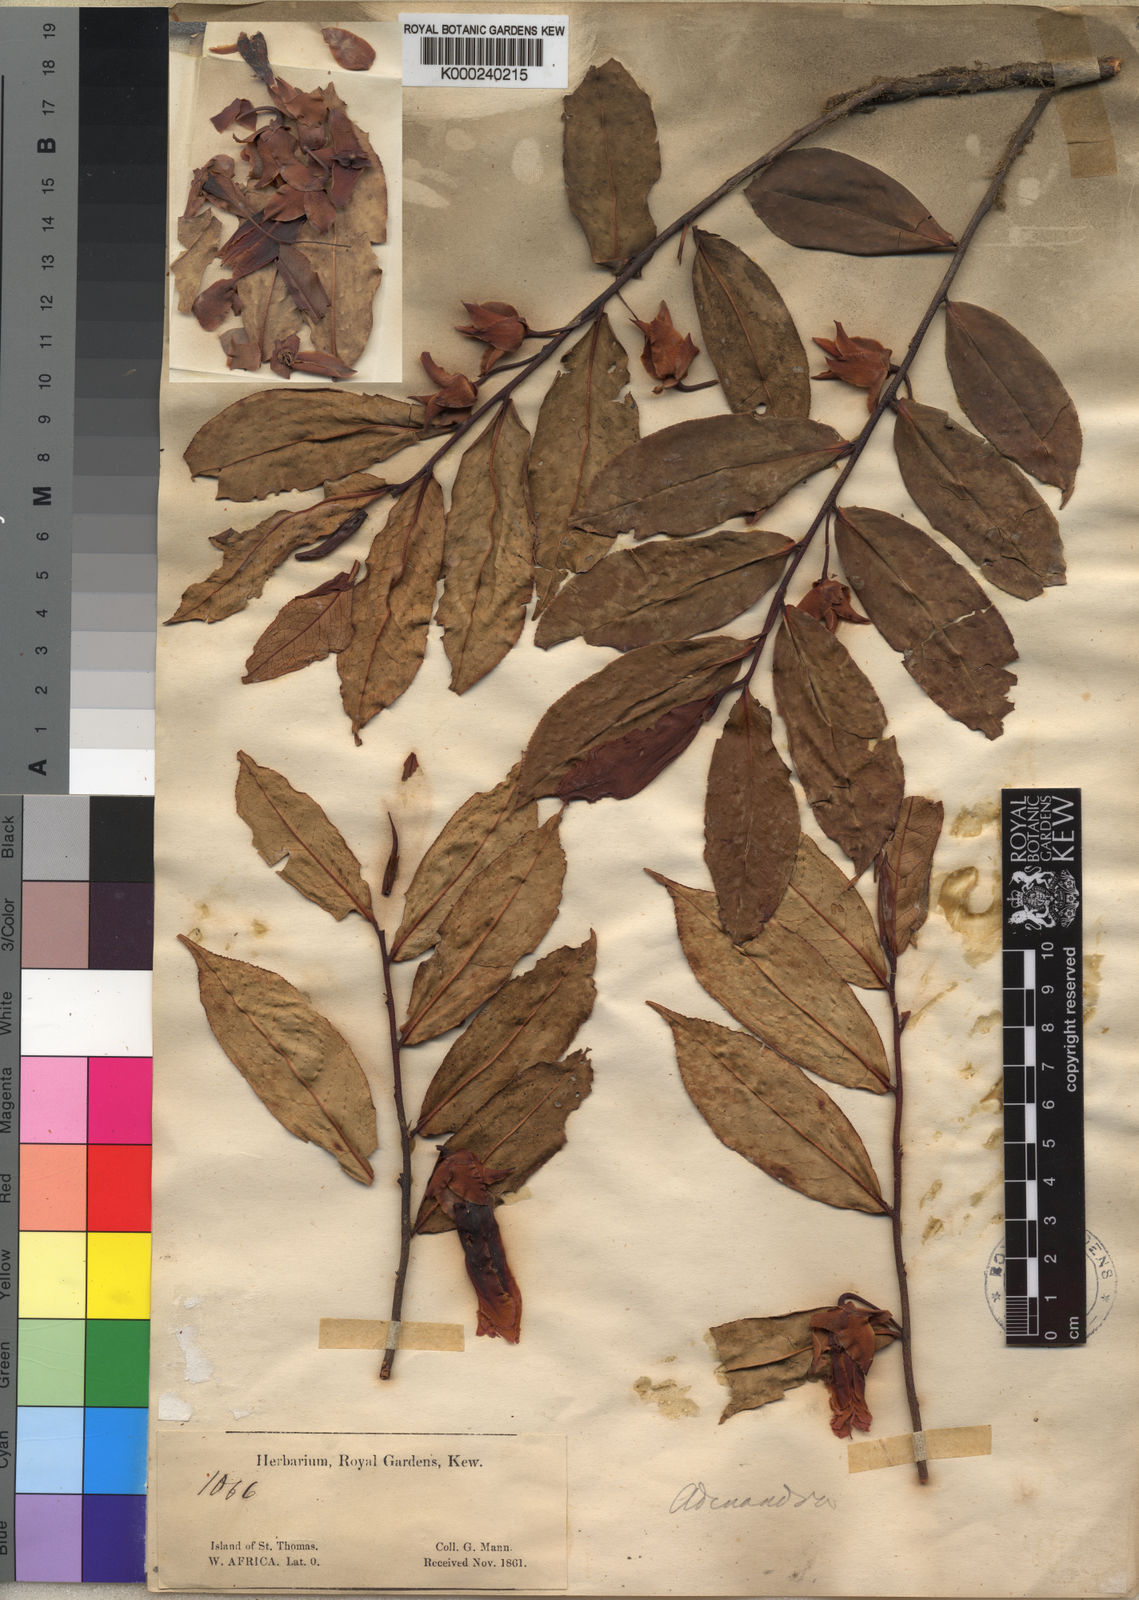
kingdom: Plantae
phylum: Tracheophyta
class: Magnoliopsida
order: Ericales
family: Pentaphylacaceae
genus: Balthasaria
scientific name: Balthasaria mannii
